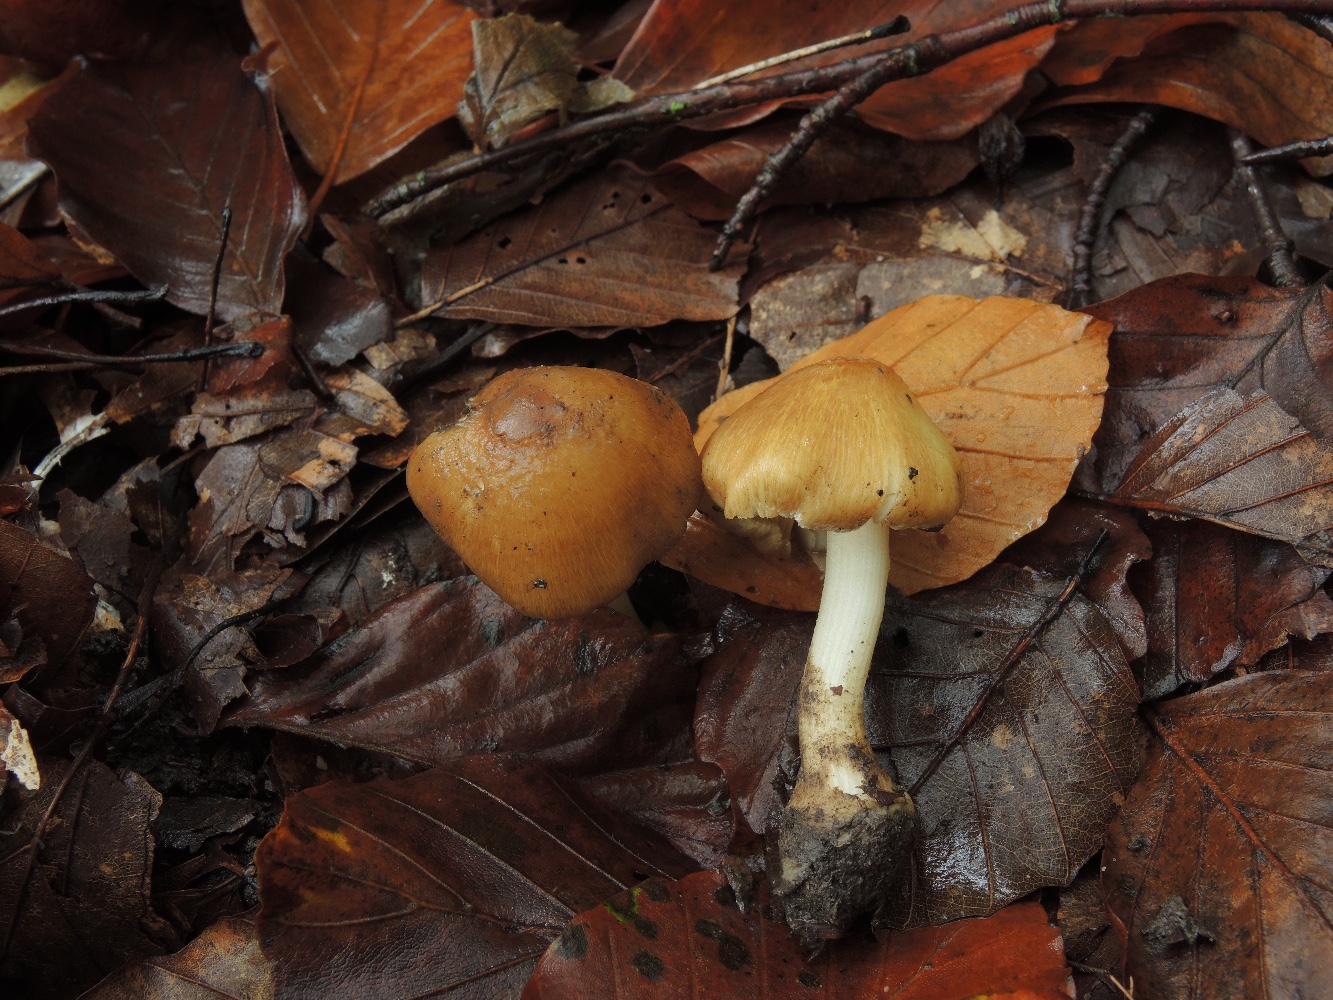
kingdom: Fungi
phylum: Basidiomycota
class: Agaricomycetes
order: Agaricales
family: Inocybaceae
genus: Inocybe
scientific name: Inocybe
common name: trævlhat
